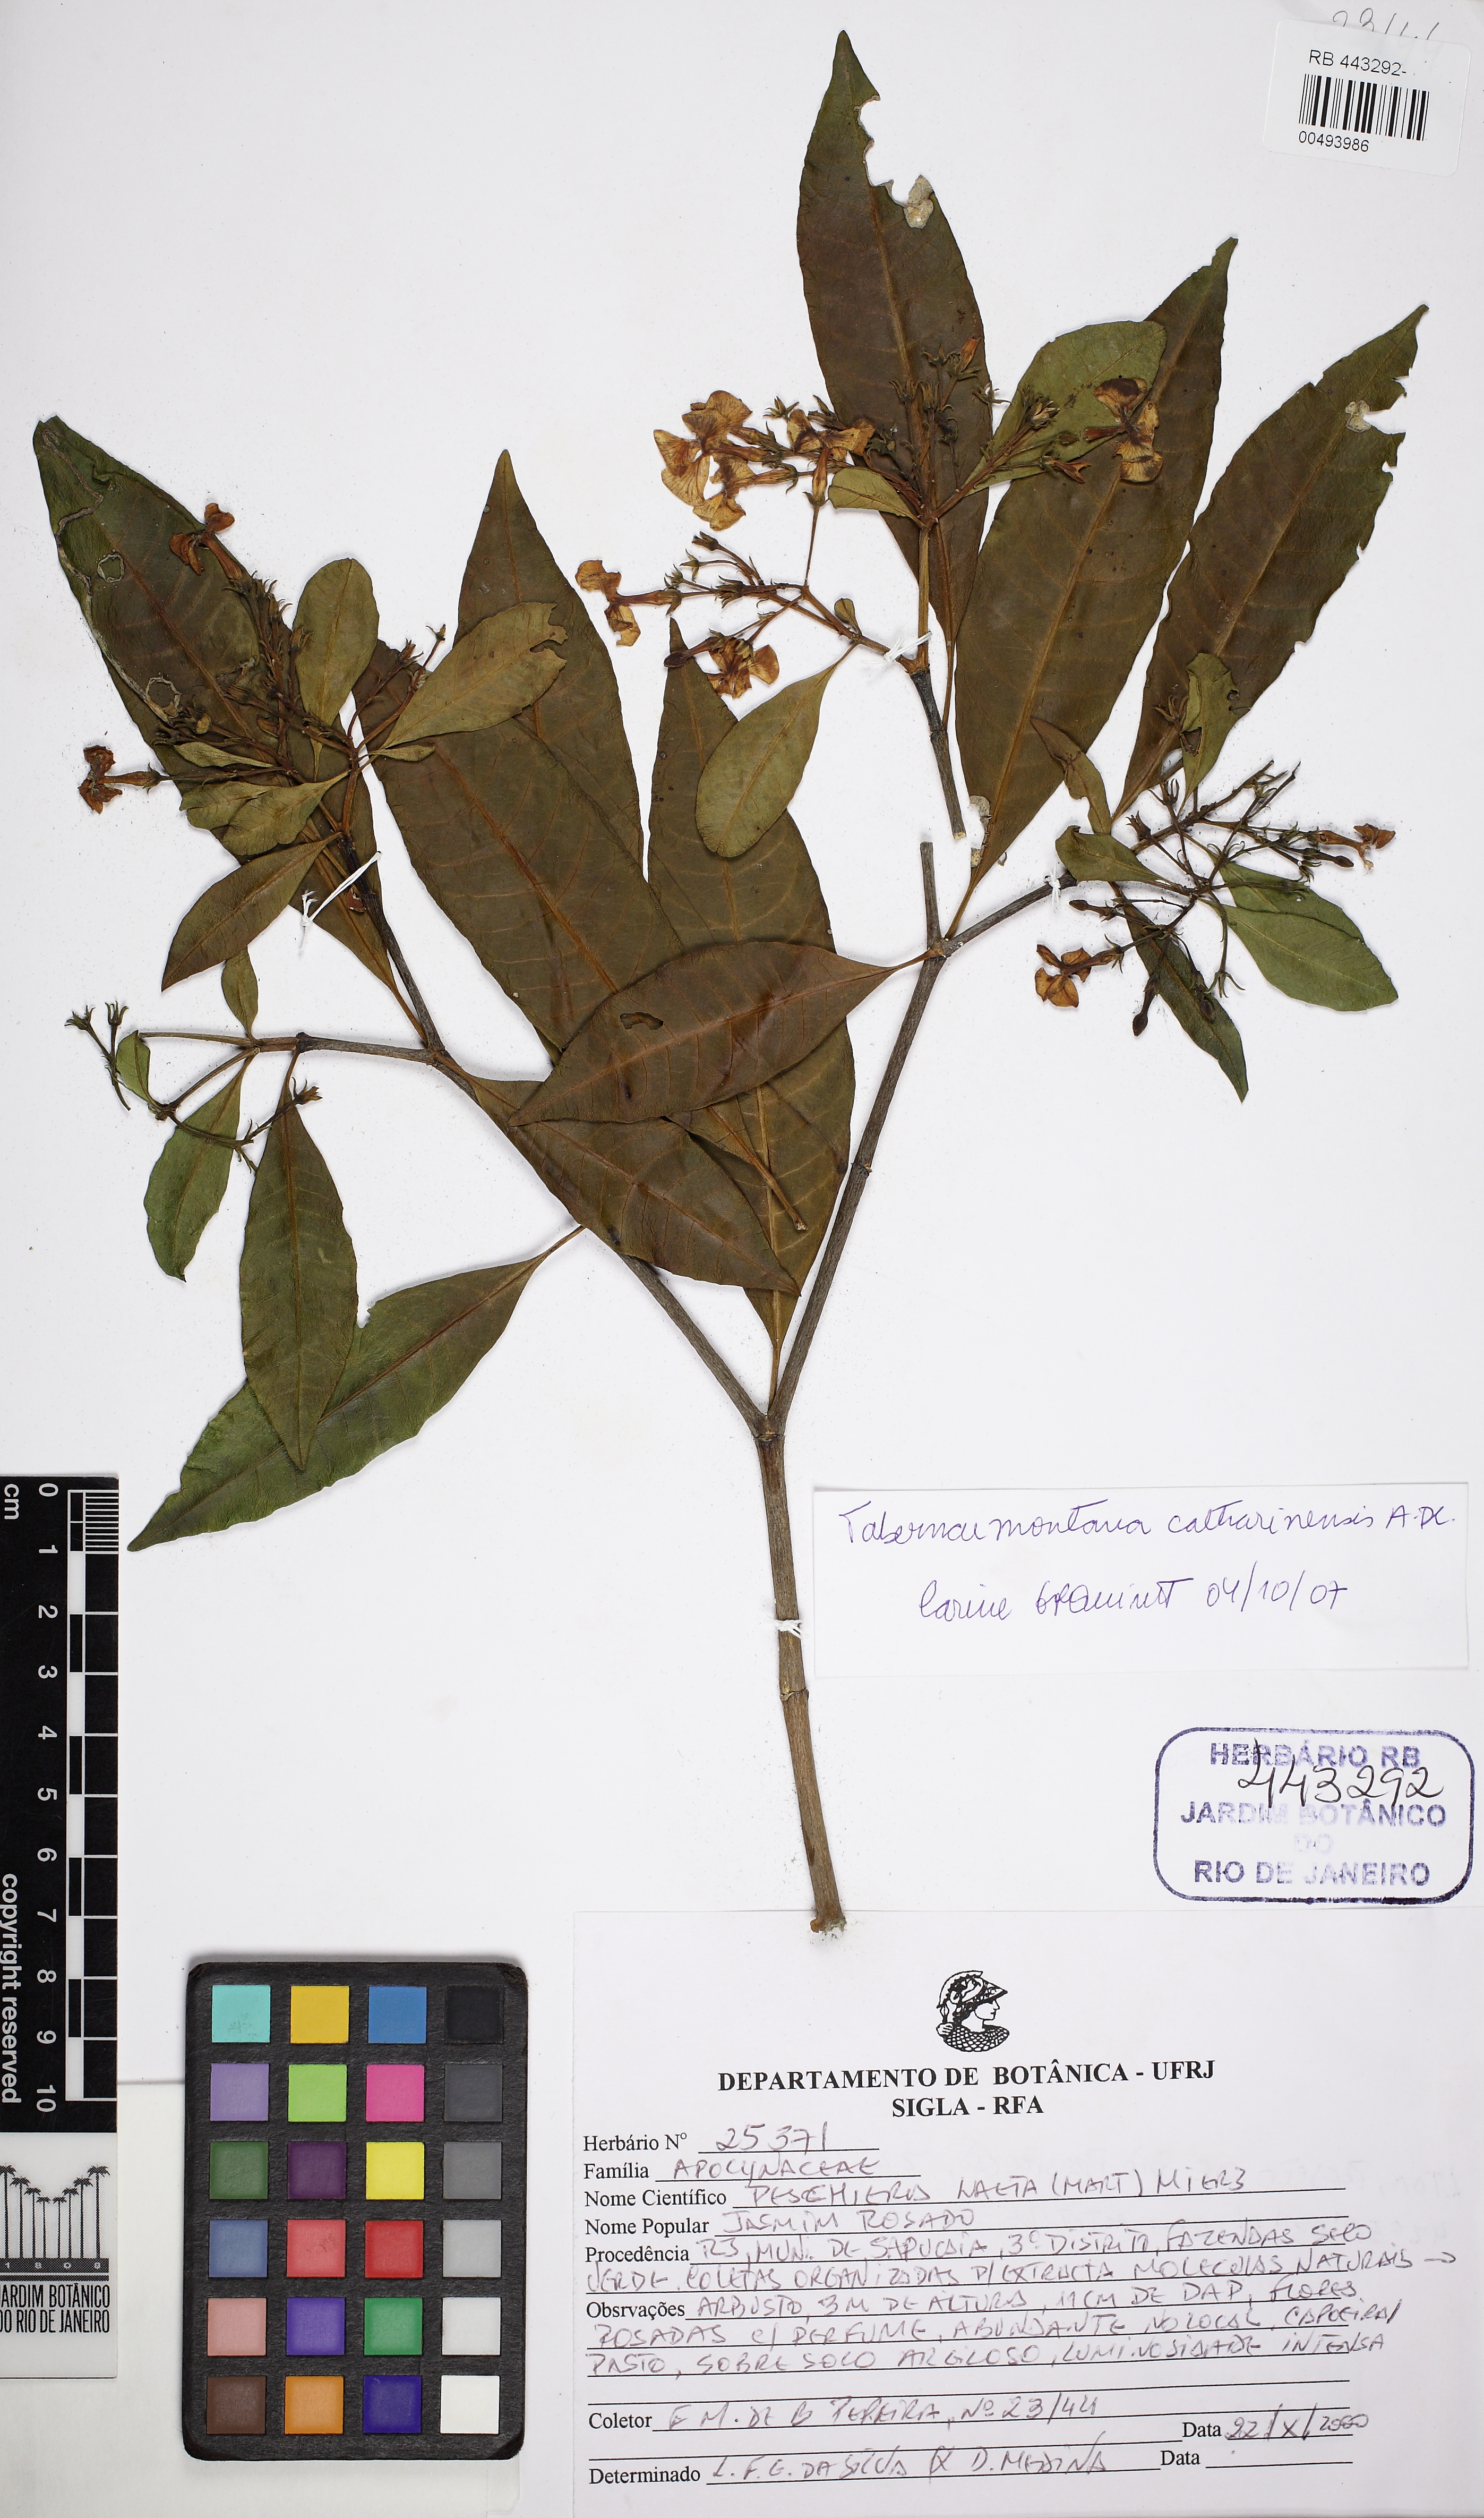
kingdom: Plantae
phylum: Tracheophyta
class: Magnoliopsida
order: Gentianales
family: Apocynaceae
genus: Tabernaemontana
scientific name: Tabernaemontana catharinensis
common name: Pinwheel-flower
